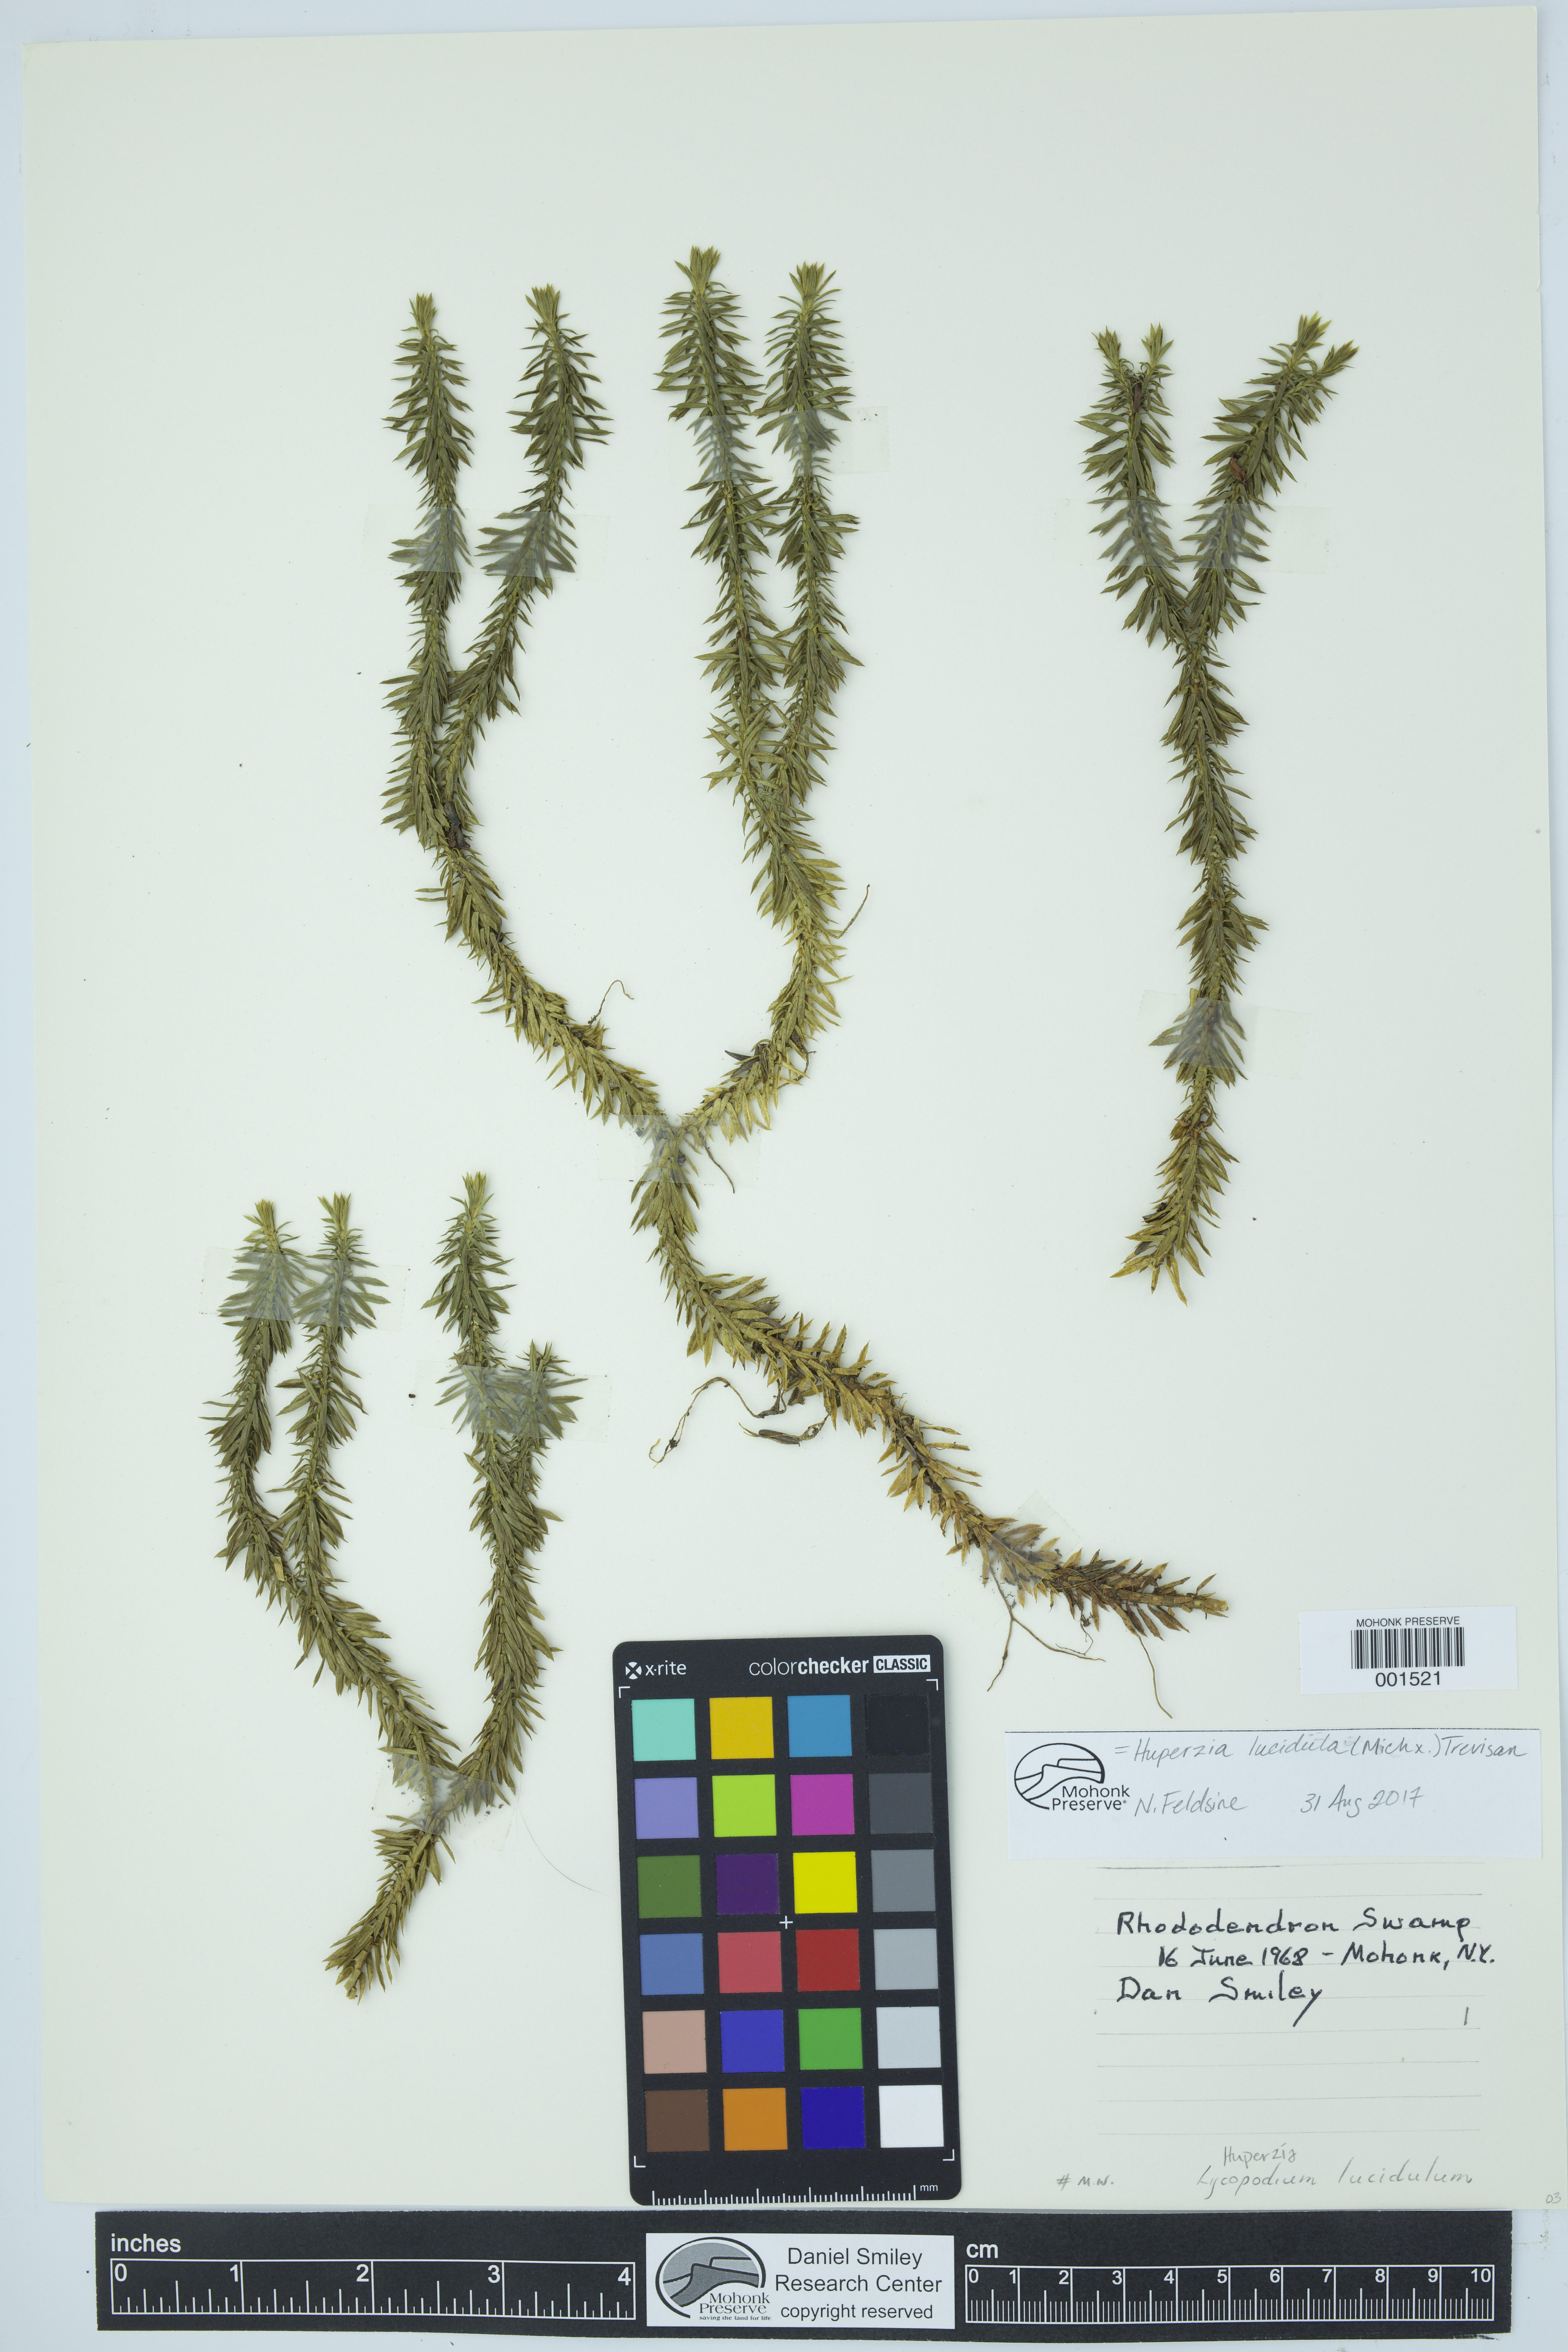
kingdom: Plantae
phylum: Tracheophyta
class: Lycopodiopsida
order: Lycopodiales
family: Lycopodiaceae
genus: Huperzia
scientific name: Huperzia lucidula
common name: Shining clubmoss
